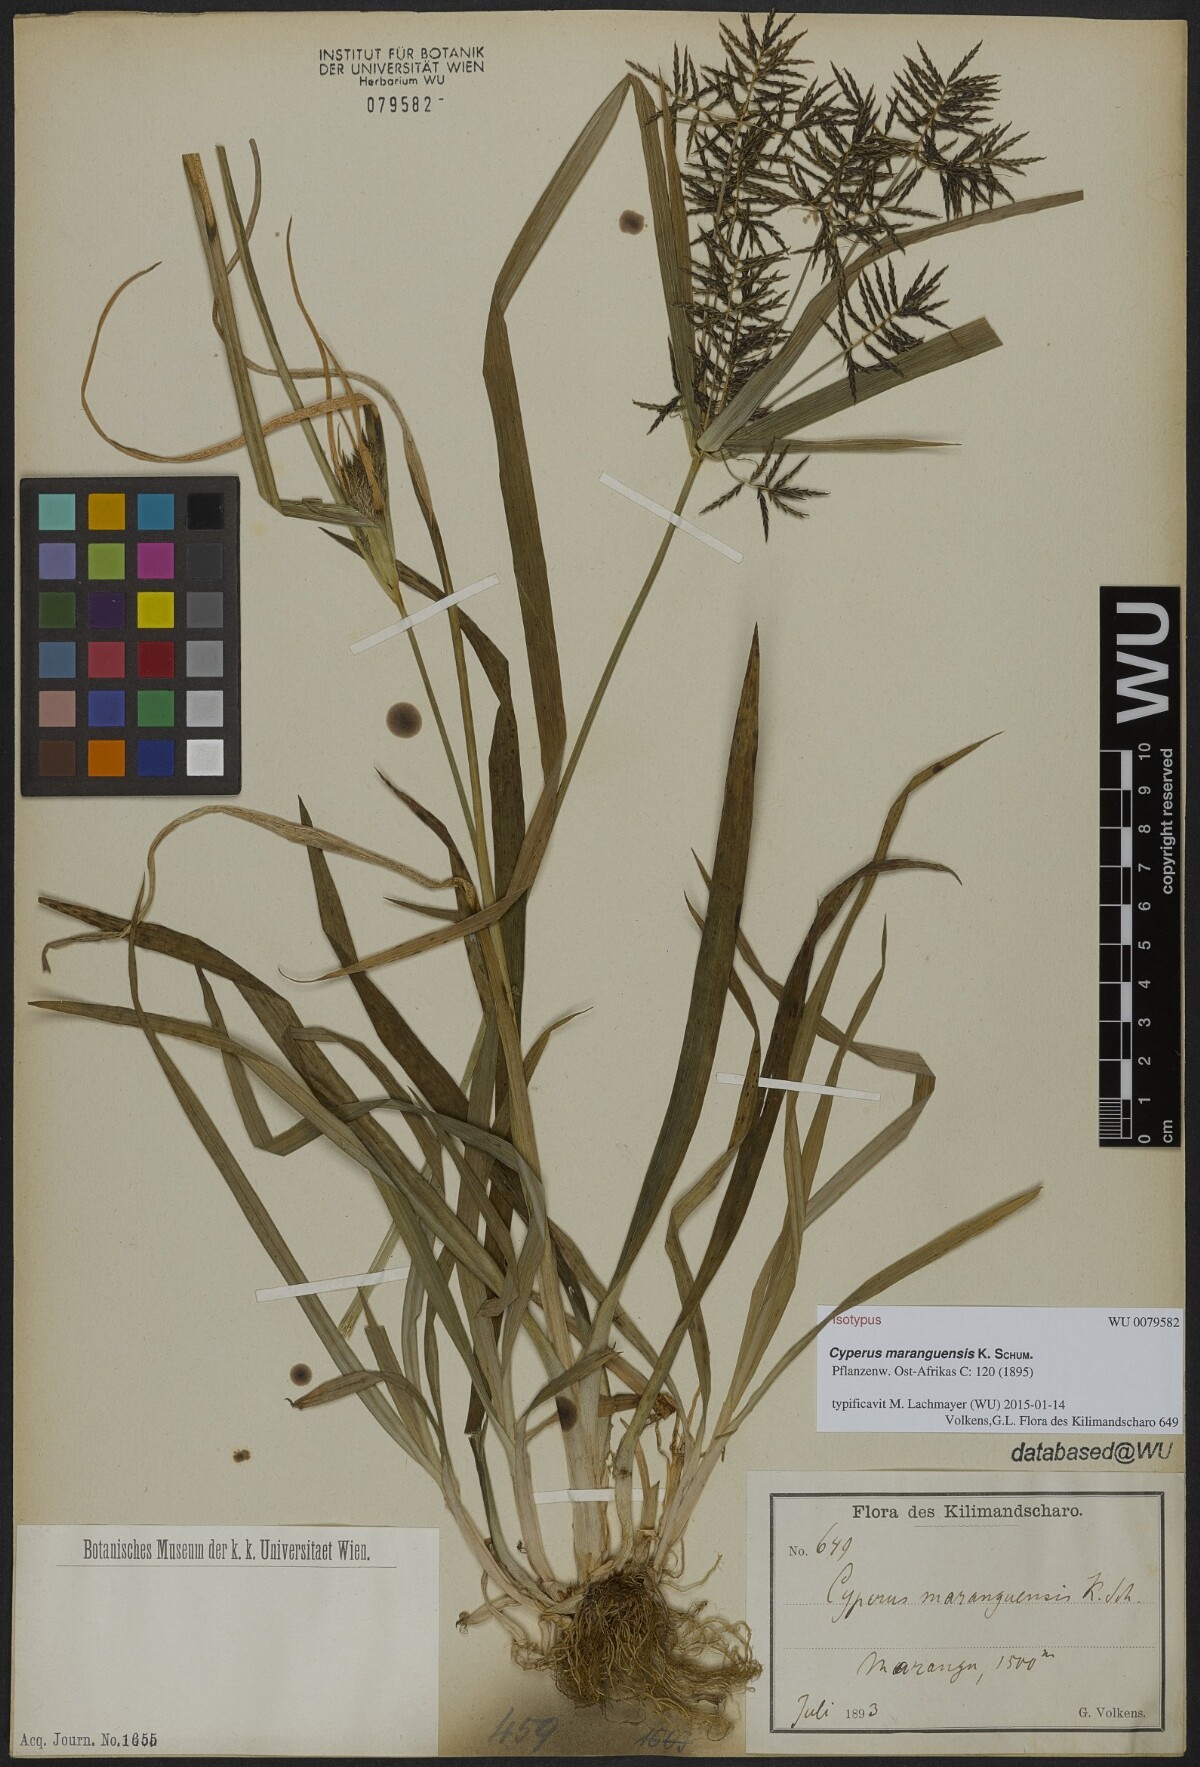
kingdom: Plantae
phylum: Tracheophyta
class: Liliopsida
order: Poales
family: Cyperaceae
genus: Cyperus
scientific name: Cyperus maranguensis
